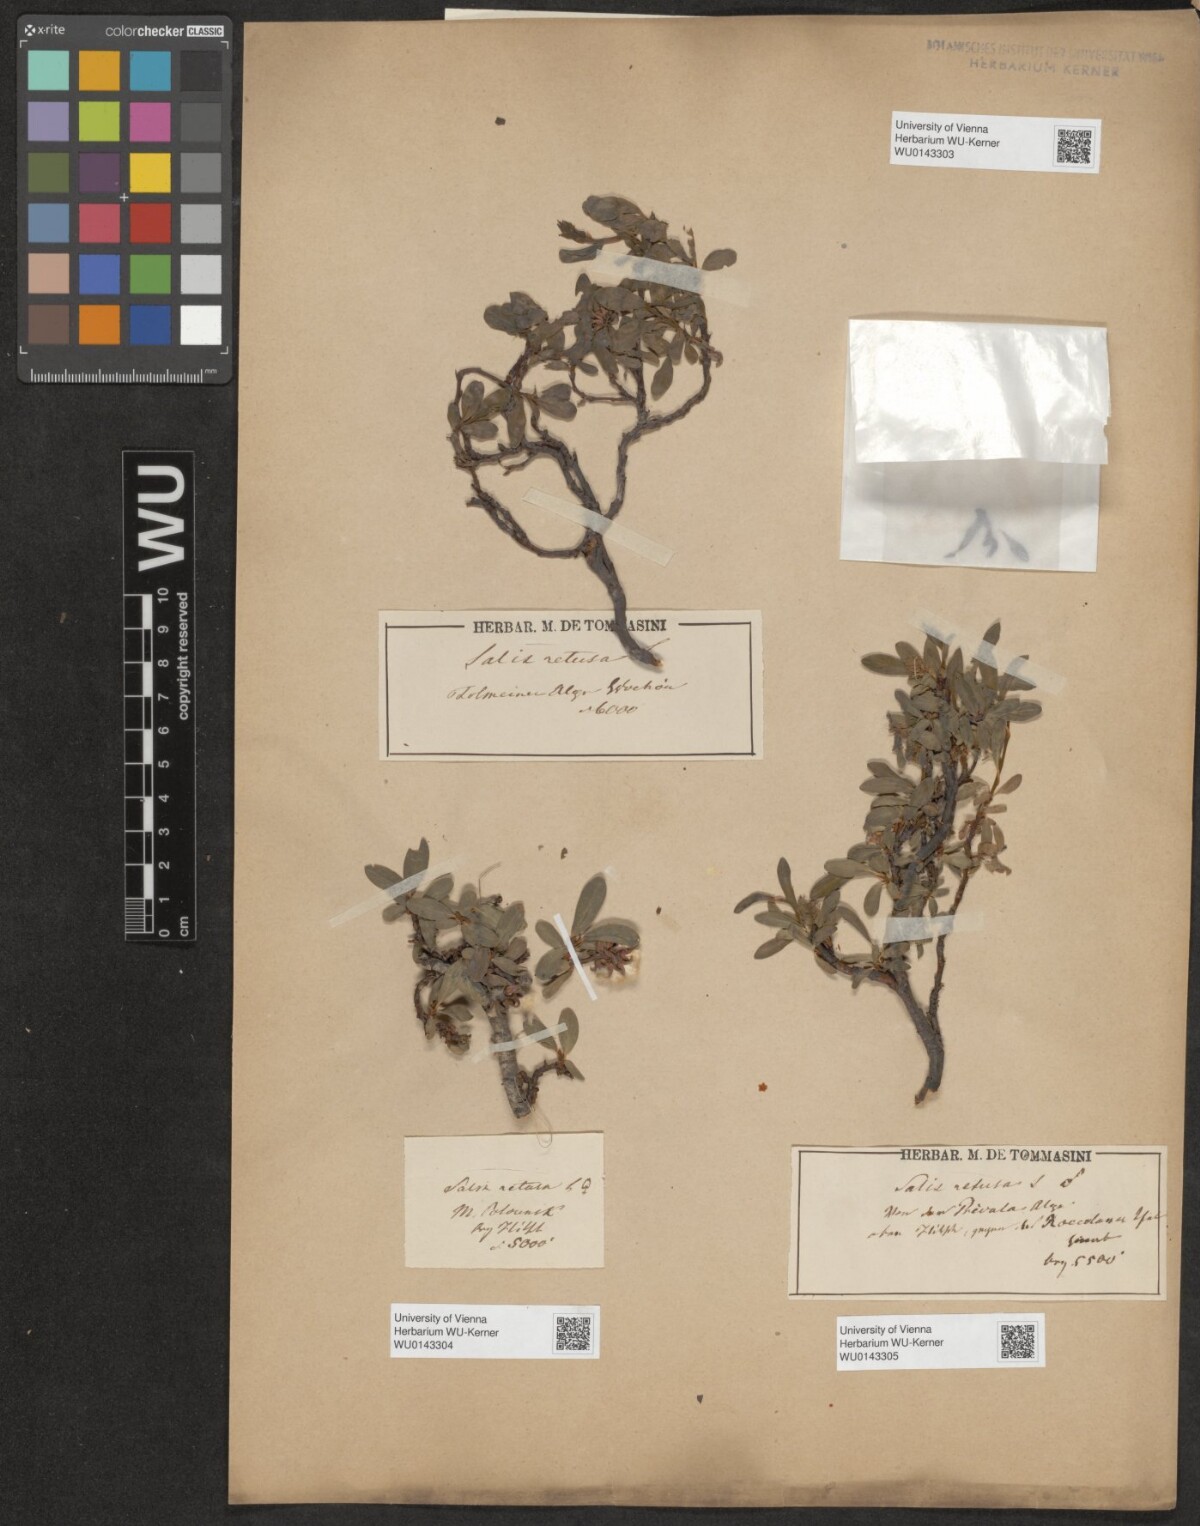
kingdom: Plantae
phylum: Tracheophyta
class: Magnoliopsida
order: Malpighiales
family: Salicaceae
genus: Salix
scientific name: Salix retusa
